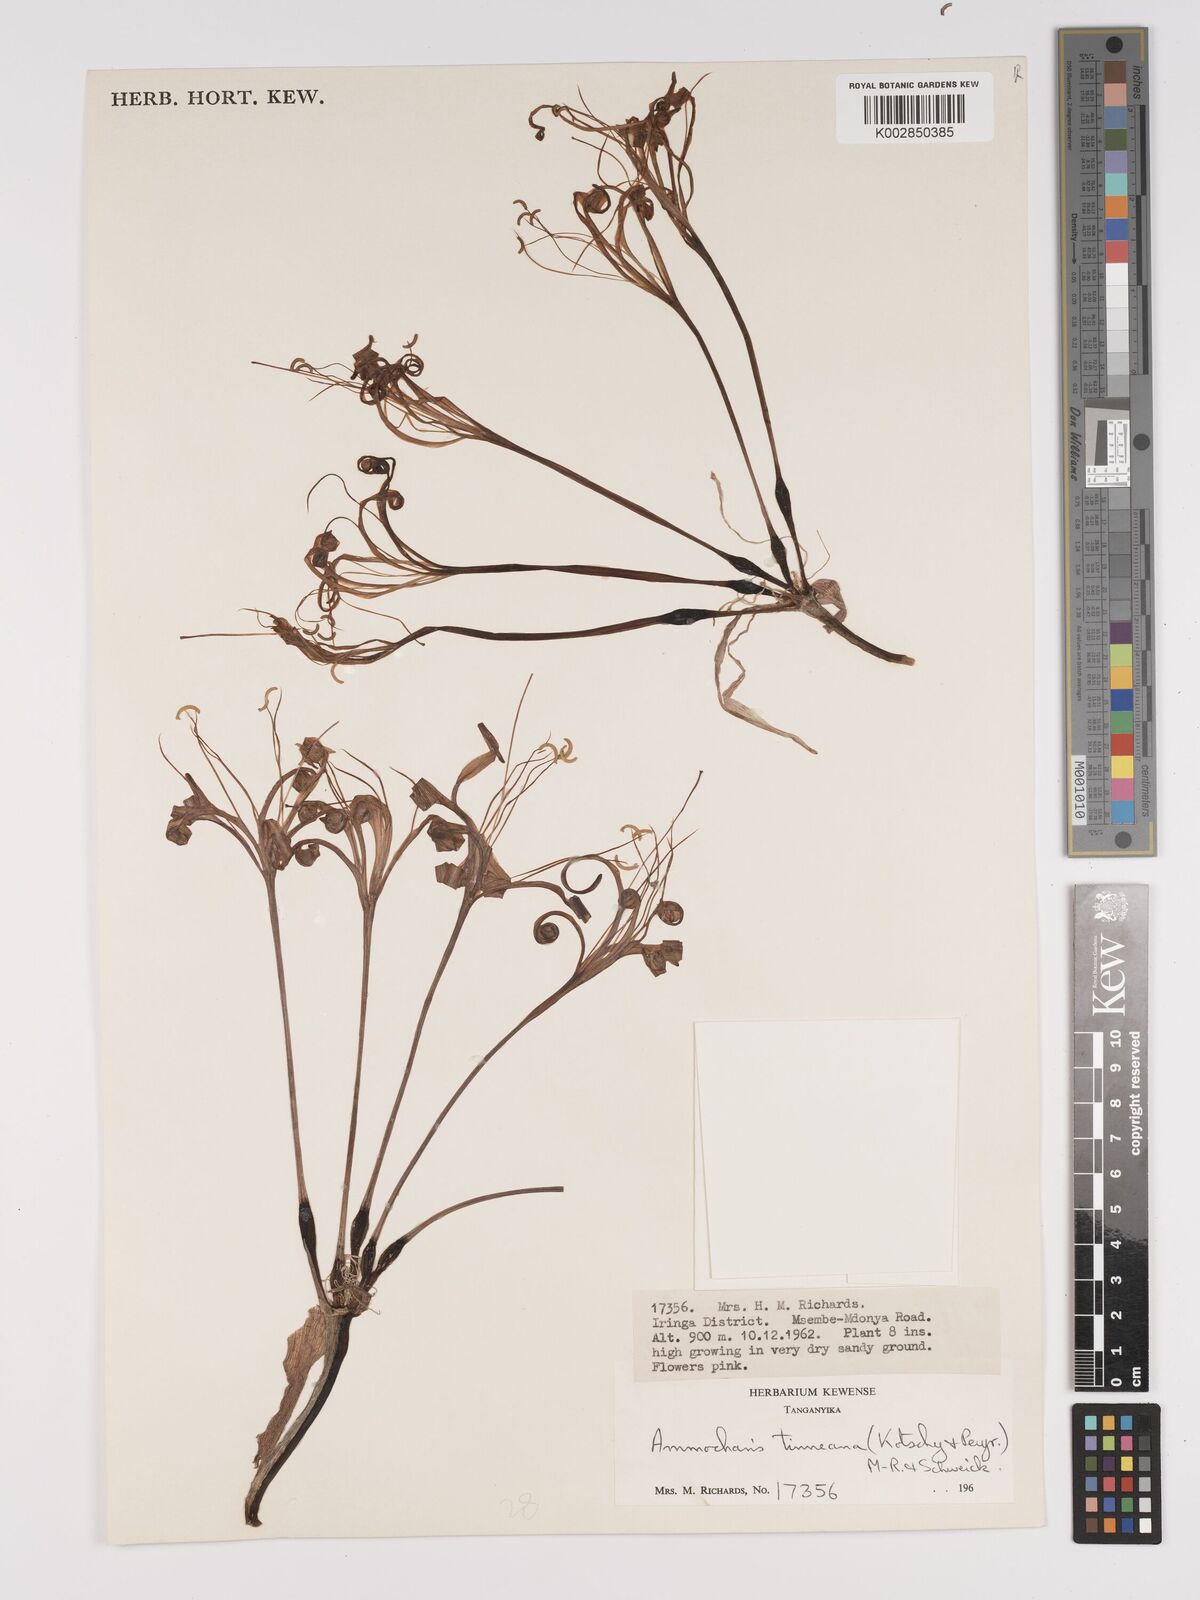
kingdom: Plantae
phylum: Tracheophyta
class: Liliopsida
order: Asparagales
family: Amaryllidaceae
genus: Ammocharis
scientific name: Ammocharis tinneana
